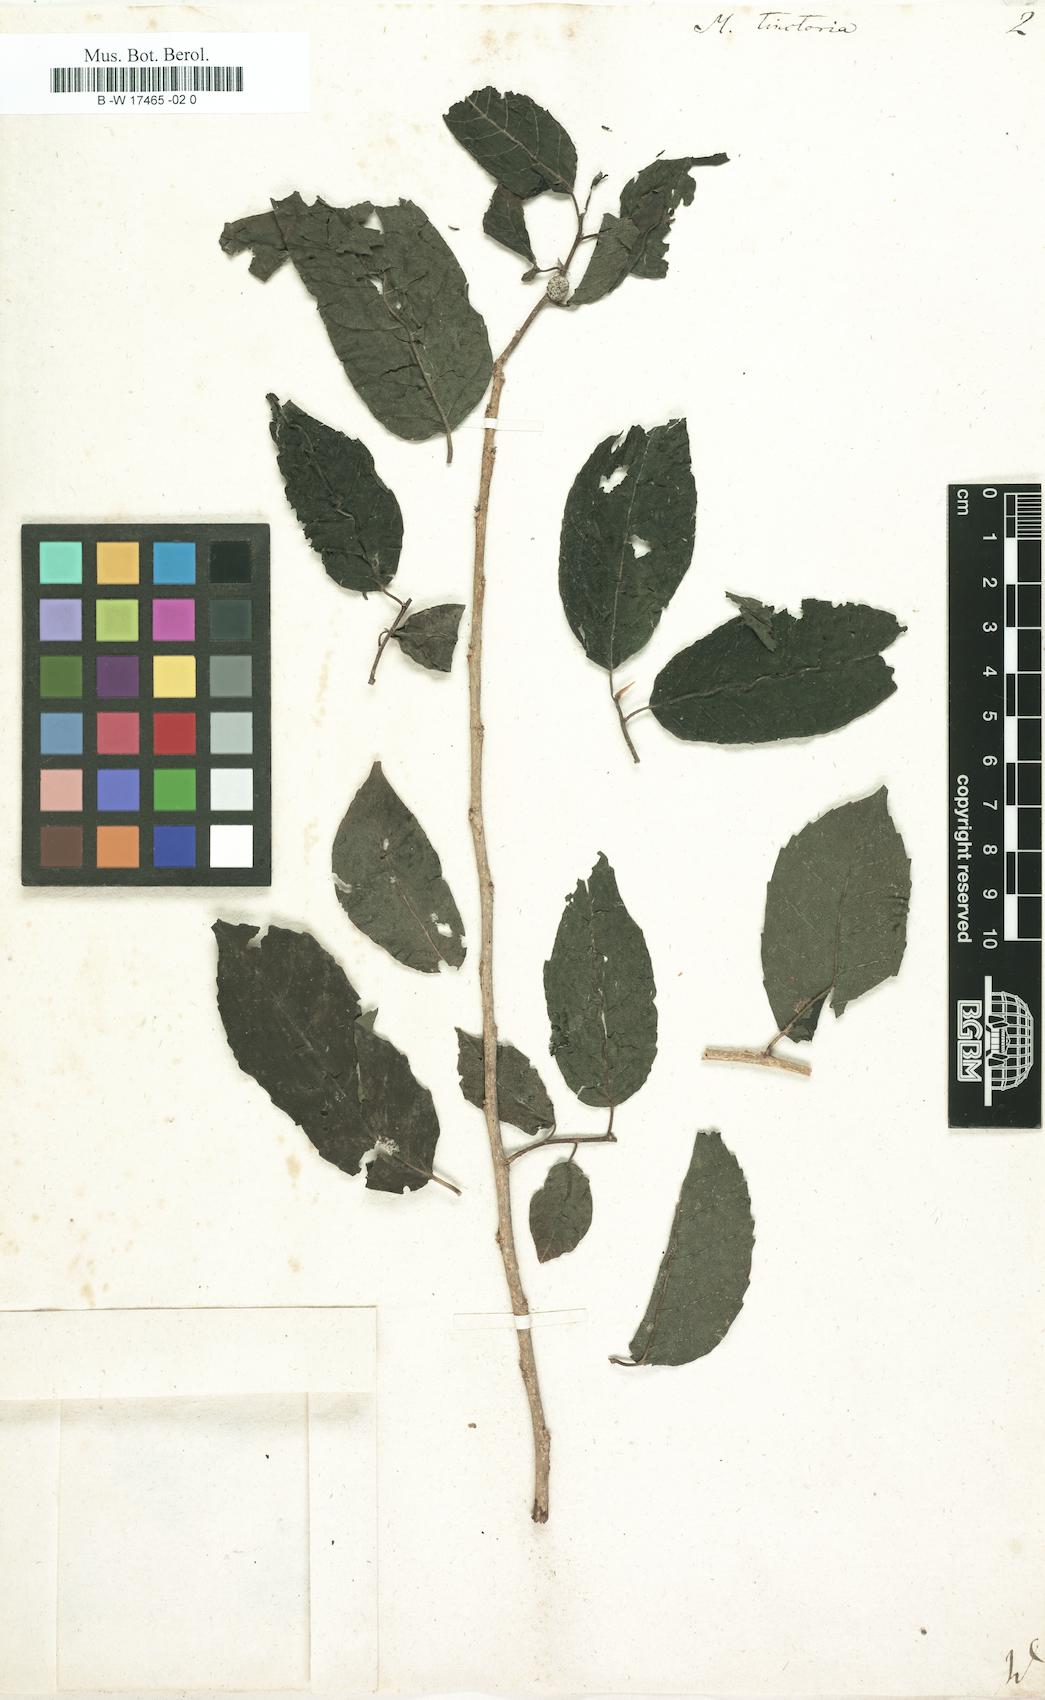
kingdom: Plantae
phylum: Tracheophyta
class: Magnoliopsida
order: Rosales
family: Moraceae
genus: Maclura
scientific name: Maclura
